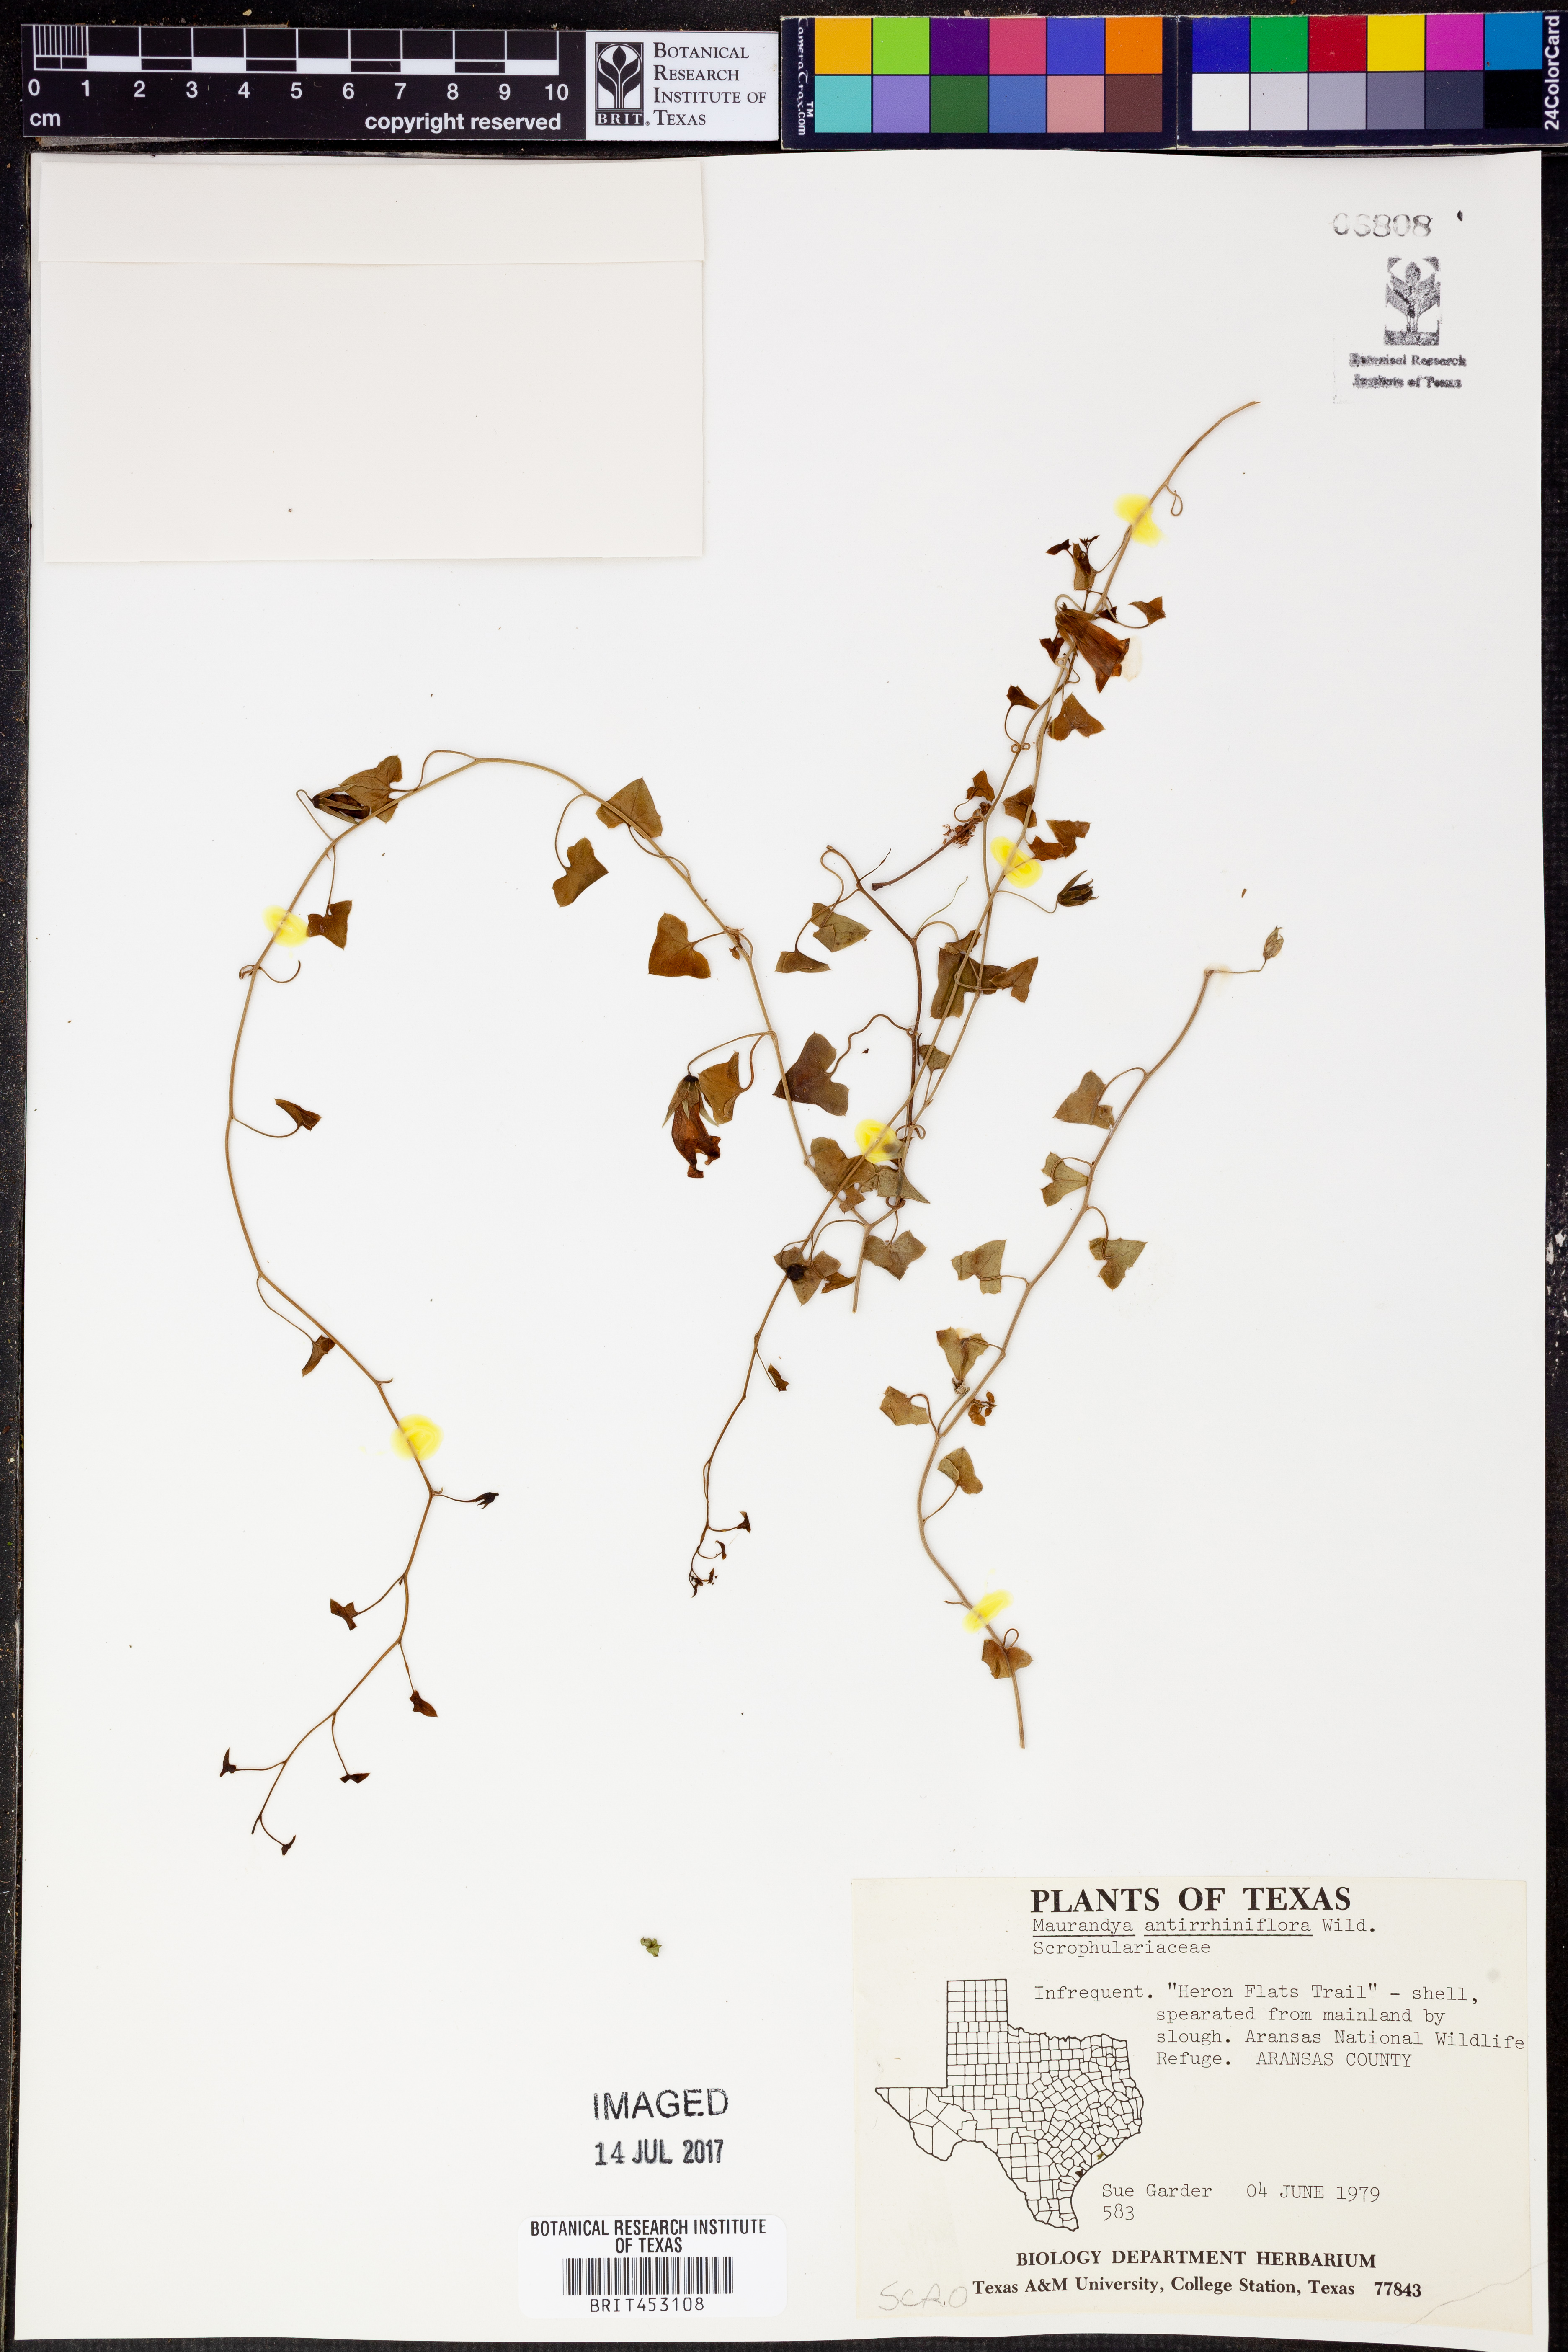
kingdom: Plantae
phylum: Tracheophyta
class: Magnoliopsida
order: Lamiales
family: Plantaginaceae
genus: Maurandella
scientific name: Maurandella antirrhiniflora
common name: Violet twining-snapdragon
